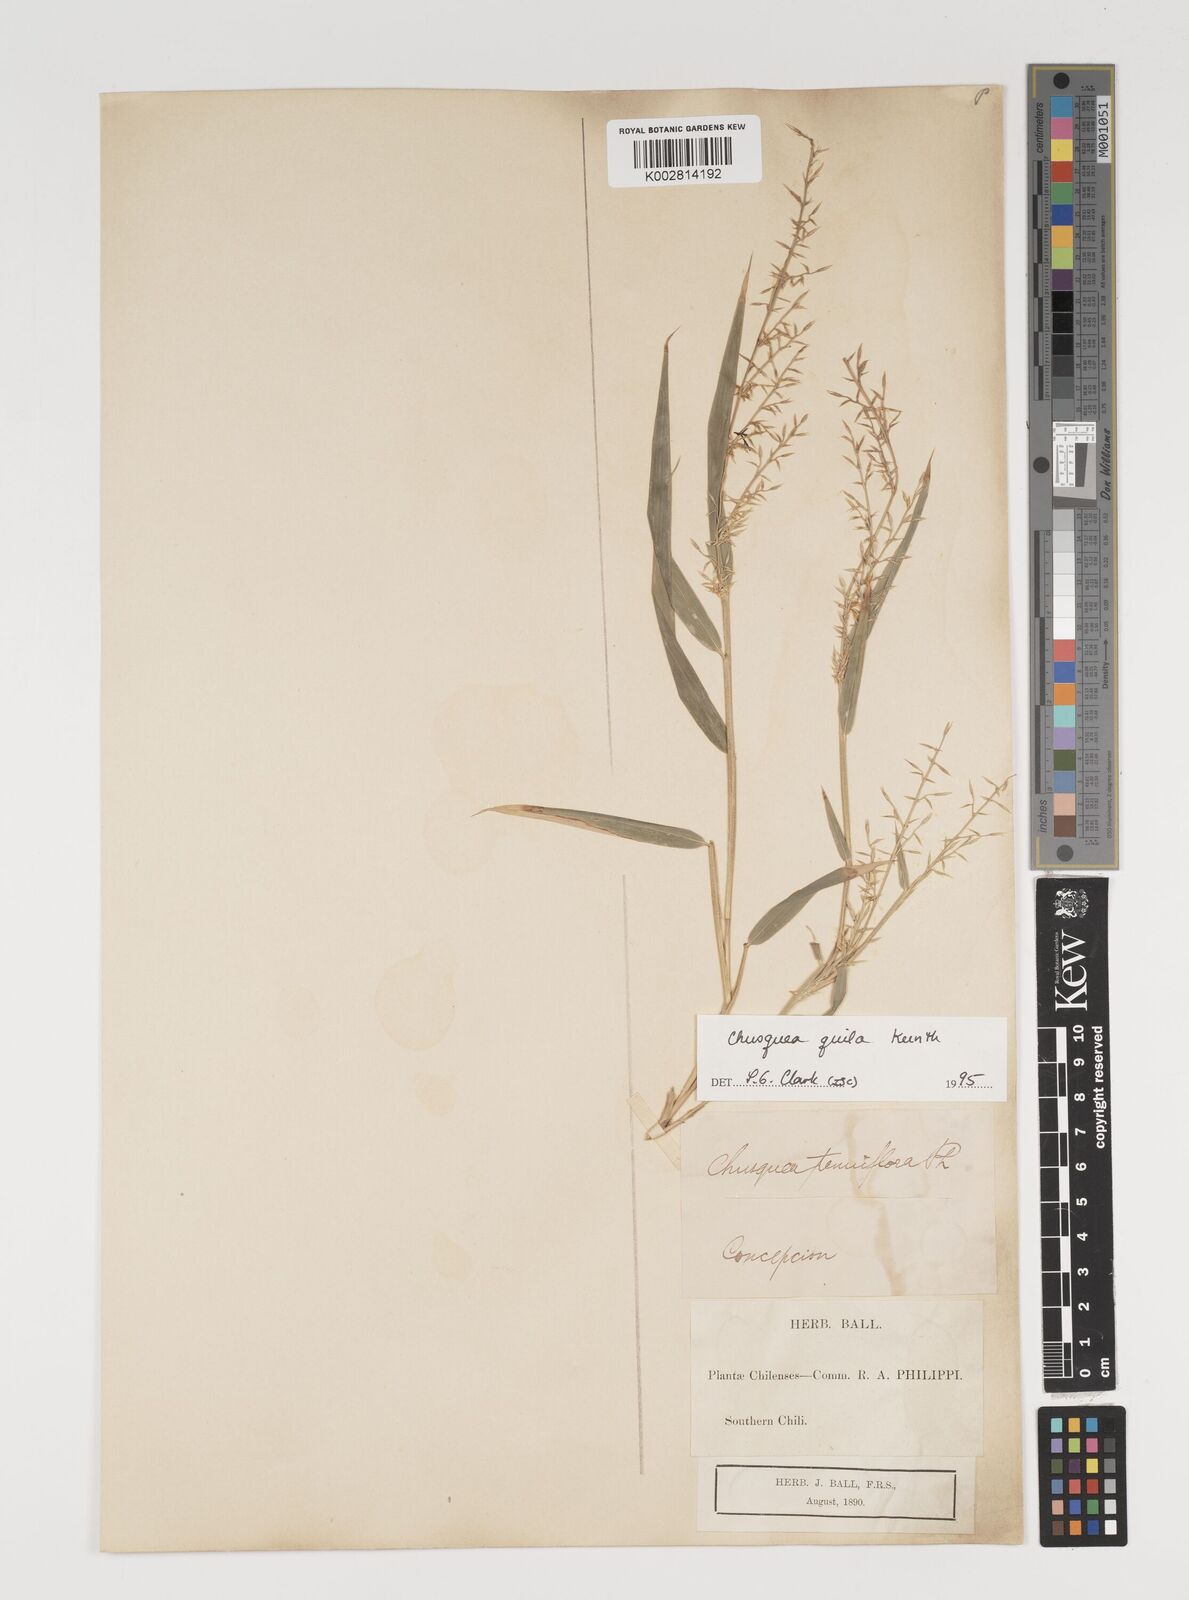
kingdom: Plantae
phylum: Tracheophyta
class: Liliopsida
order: Poales
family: Poaceae
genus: Chusquea
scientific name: Chusquea quila
